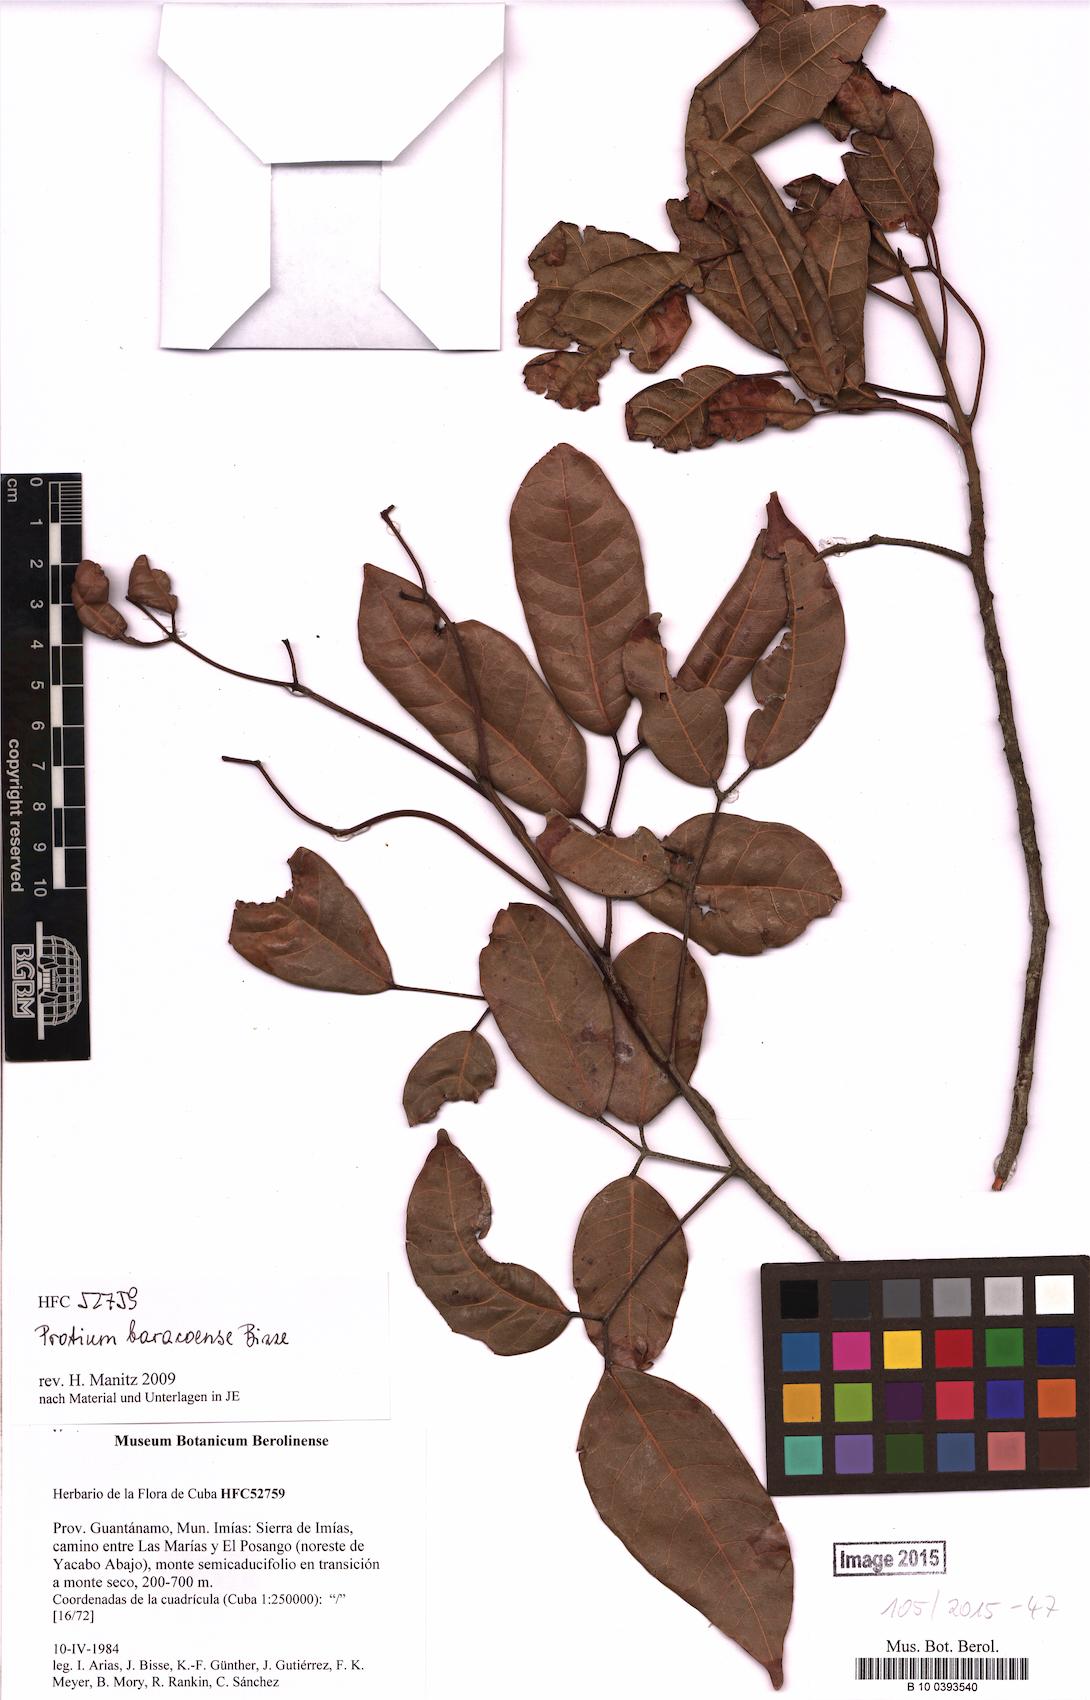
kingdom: Plantae
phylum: Tracheophyta
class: Magnoliopsida
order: Sapindales
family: Burseraceae
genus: Protium
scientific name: Protium baracoense
